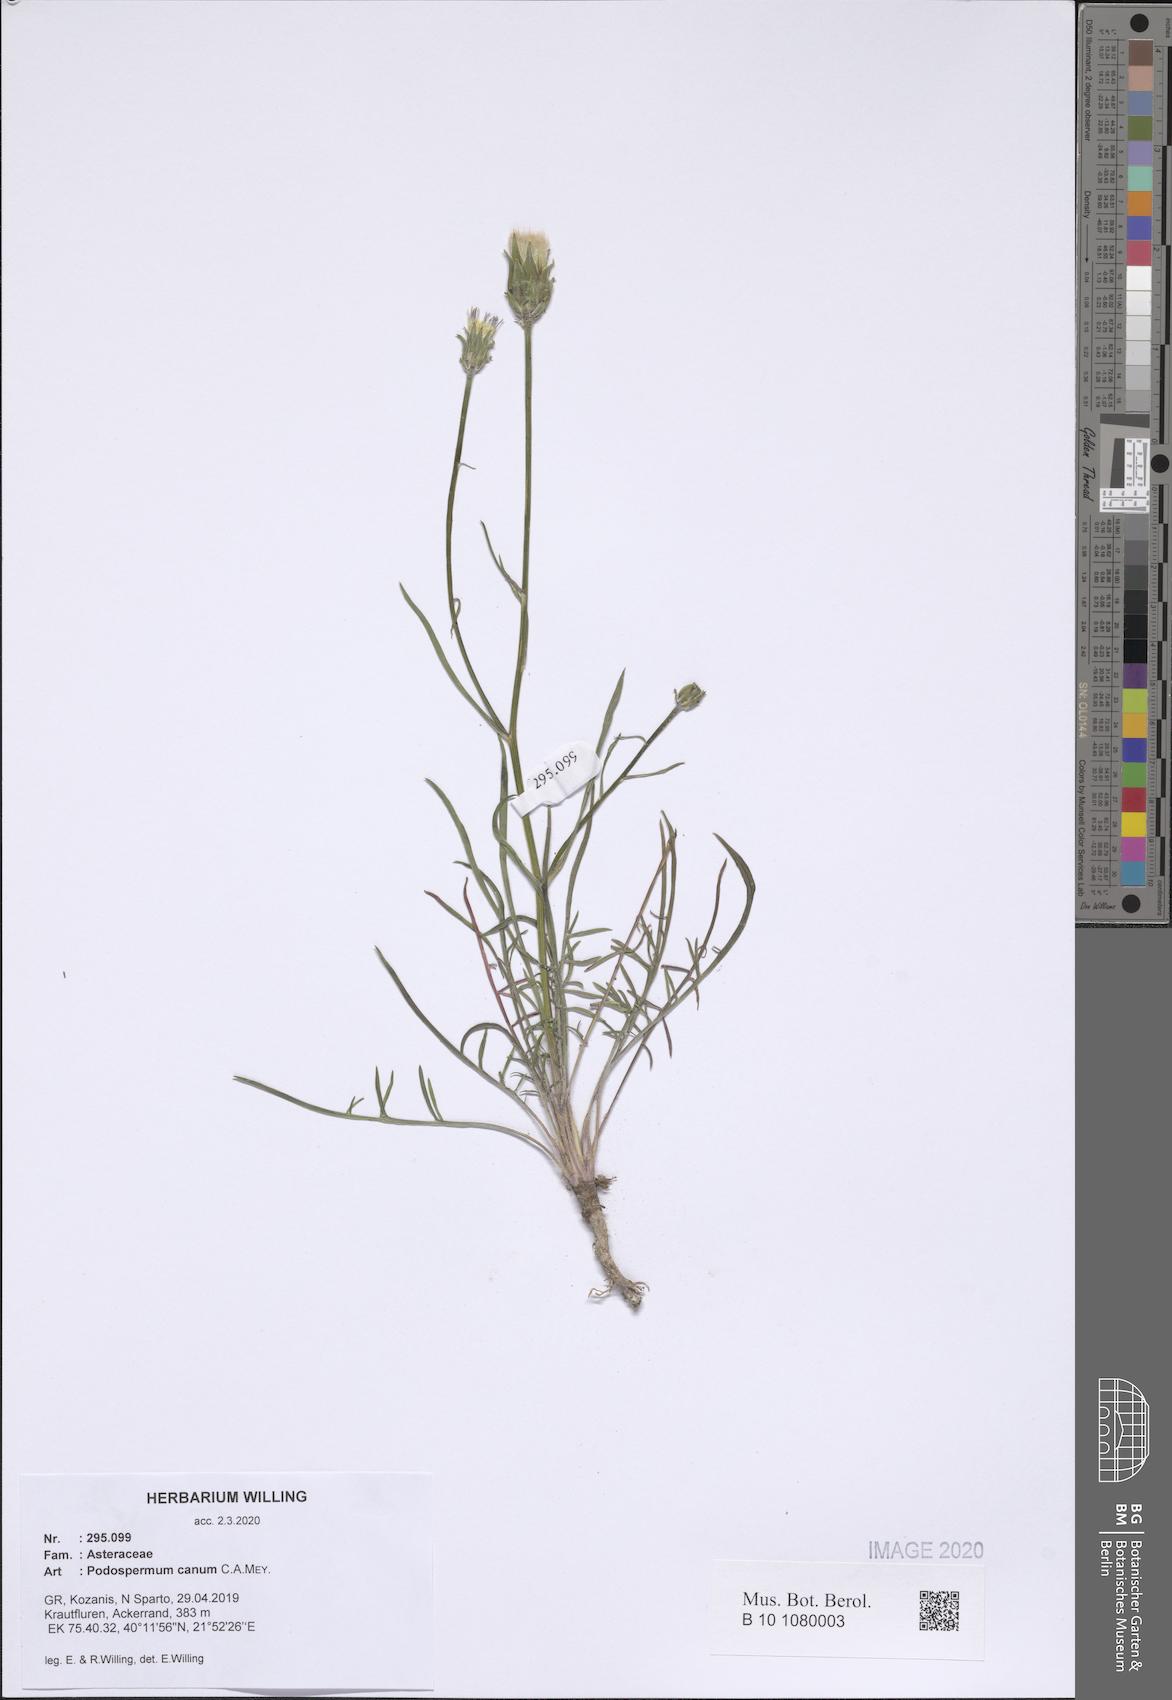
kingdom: Plantae
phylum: Tracheophyta
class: Magnoliopsida
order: Asterales
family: Asteraceae
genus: Scorzonera
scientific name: Scorzonera cana
